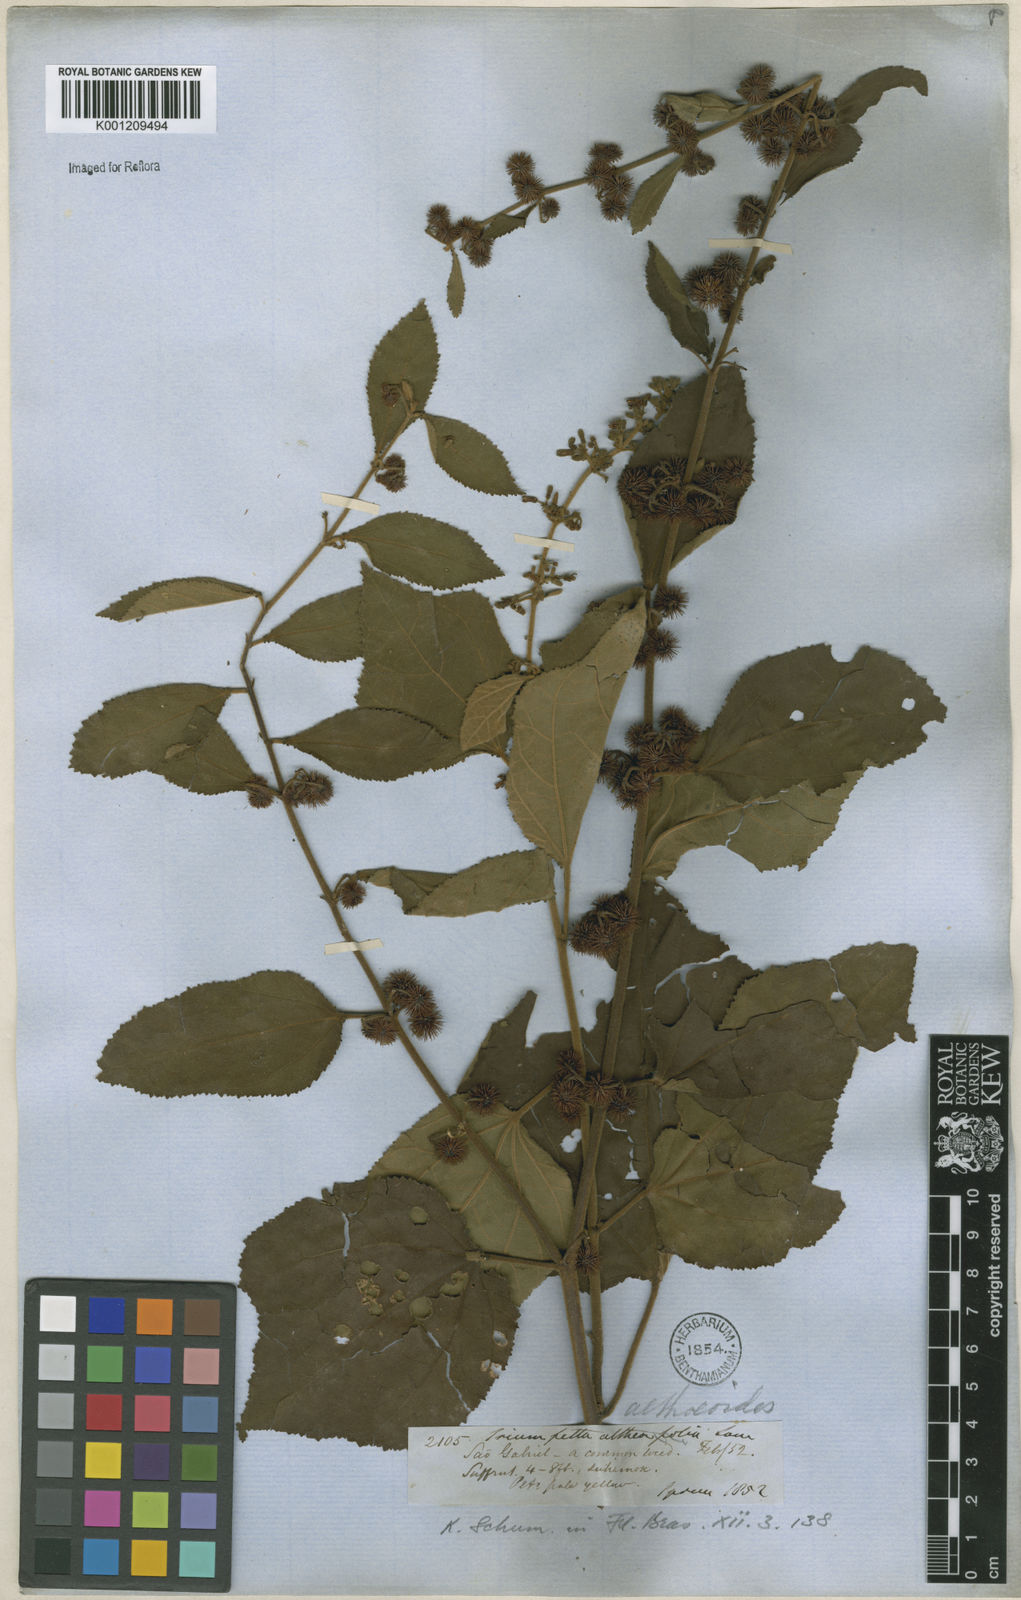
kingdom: Plantae
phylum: Tracheophyta
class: Magnoliopsida
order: Malvales
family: Malvaceae
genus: Triumfetta
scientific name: Triumfetta althaeoides
